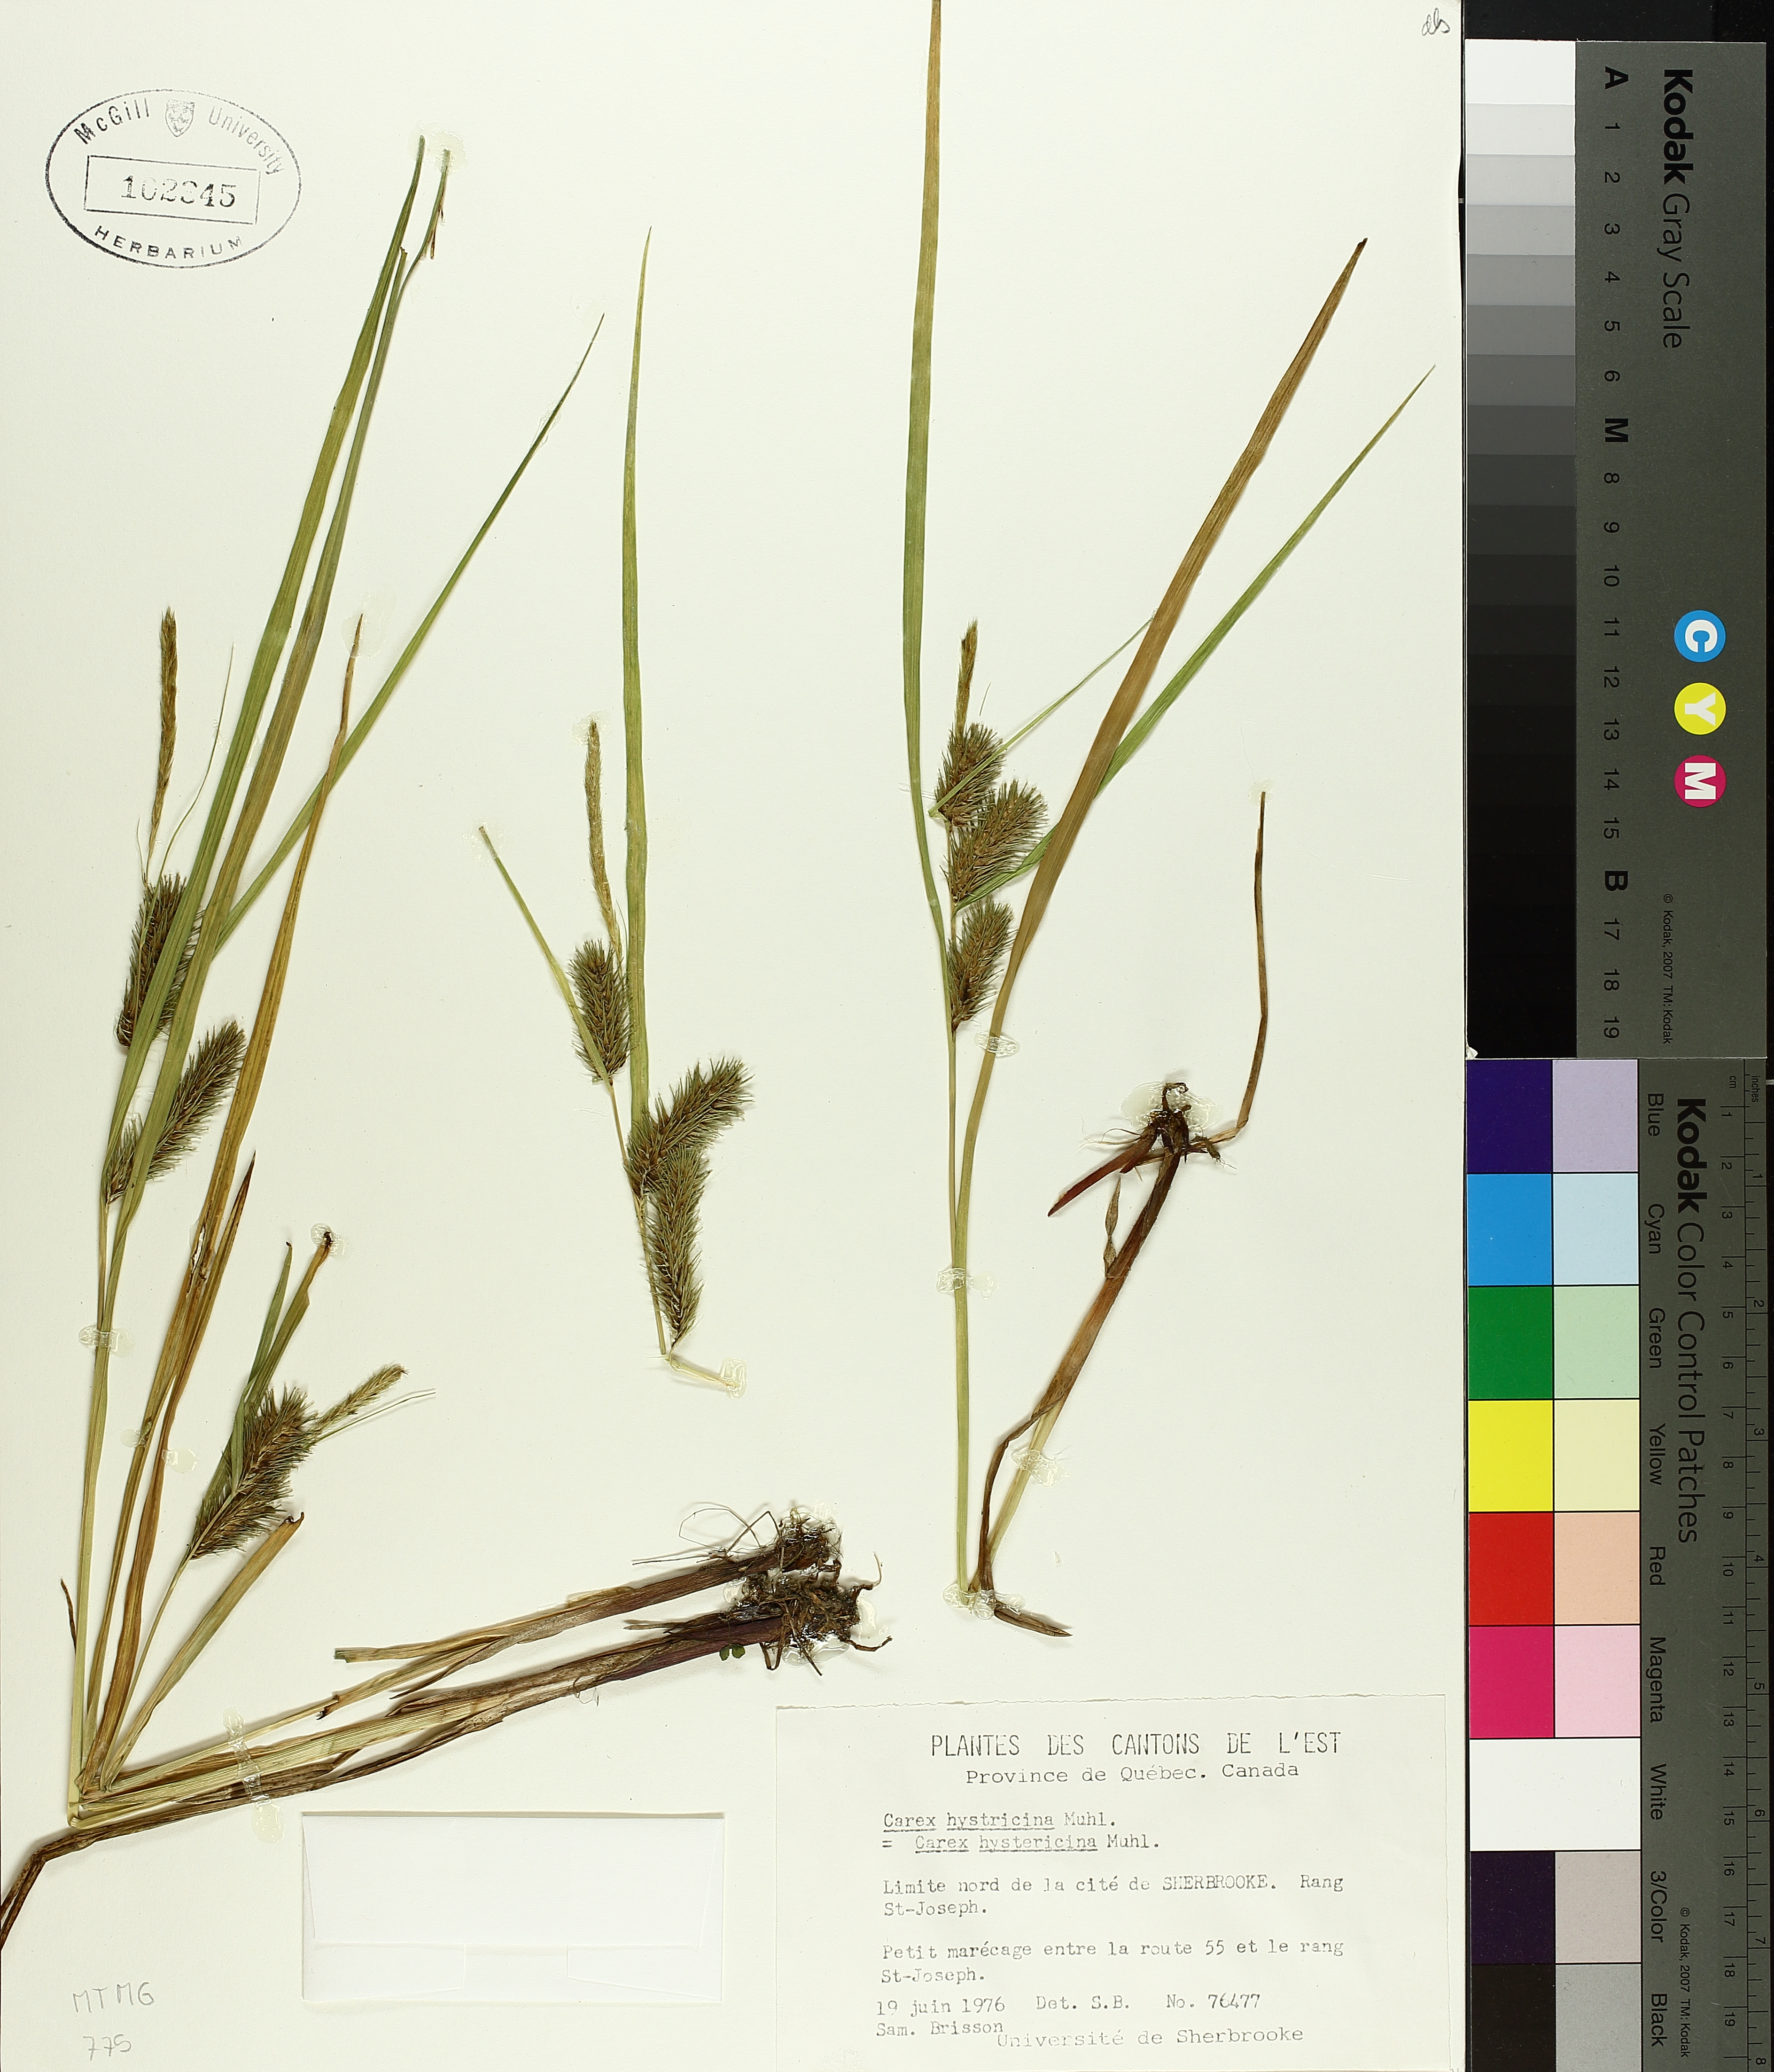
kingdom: Plantae
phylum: Tracheophyta
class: Liliopsida
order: Poales
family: Cyperaceae
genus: Carex
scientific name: Carex hystericina
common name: Bottlebrush sedge
